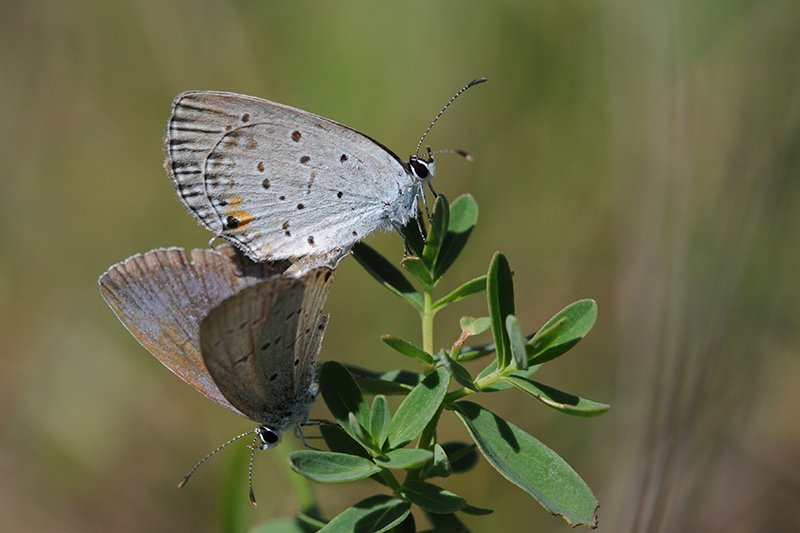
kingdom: Animalia
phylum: Arthropoda
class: Insecta
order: Lepidoptera
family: Lycaenidae
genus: Elkalyce
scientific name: Elkalyce comyntas
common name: Eastern Tailed-Blue
